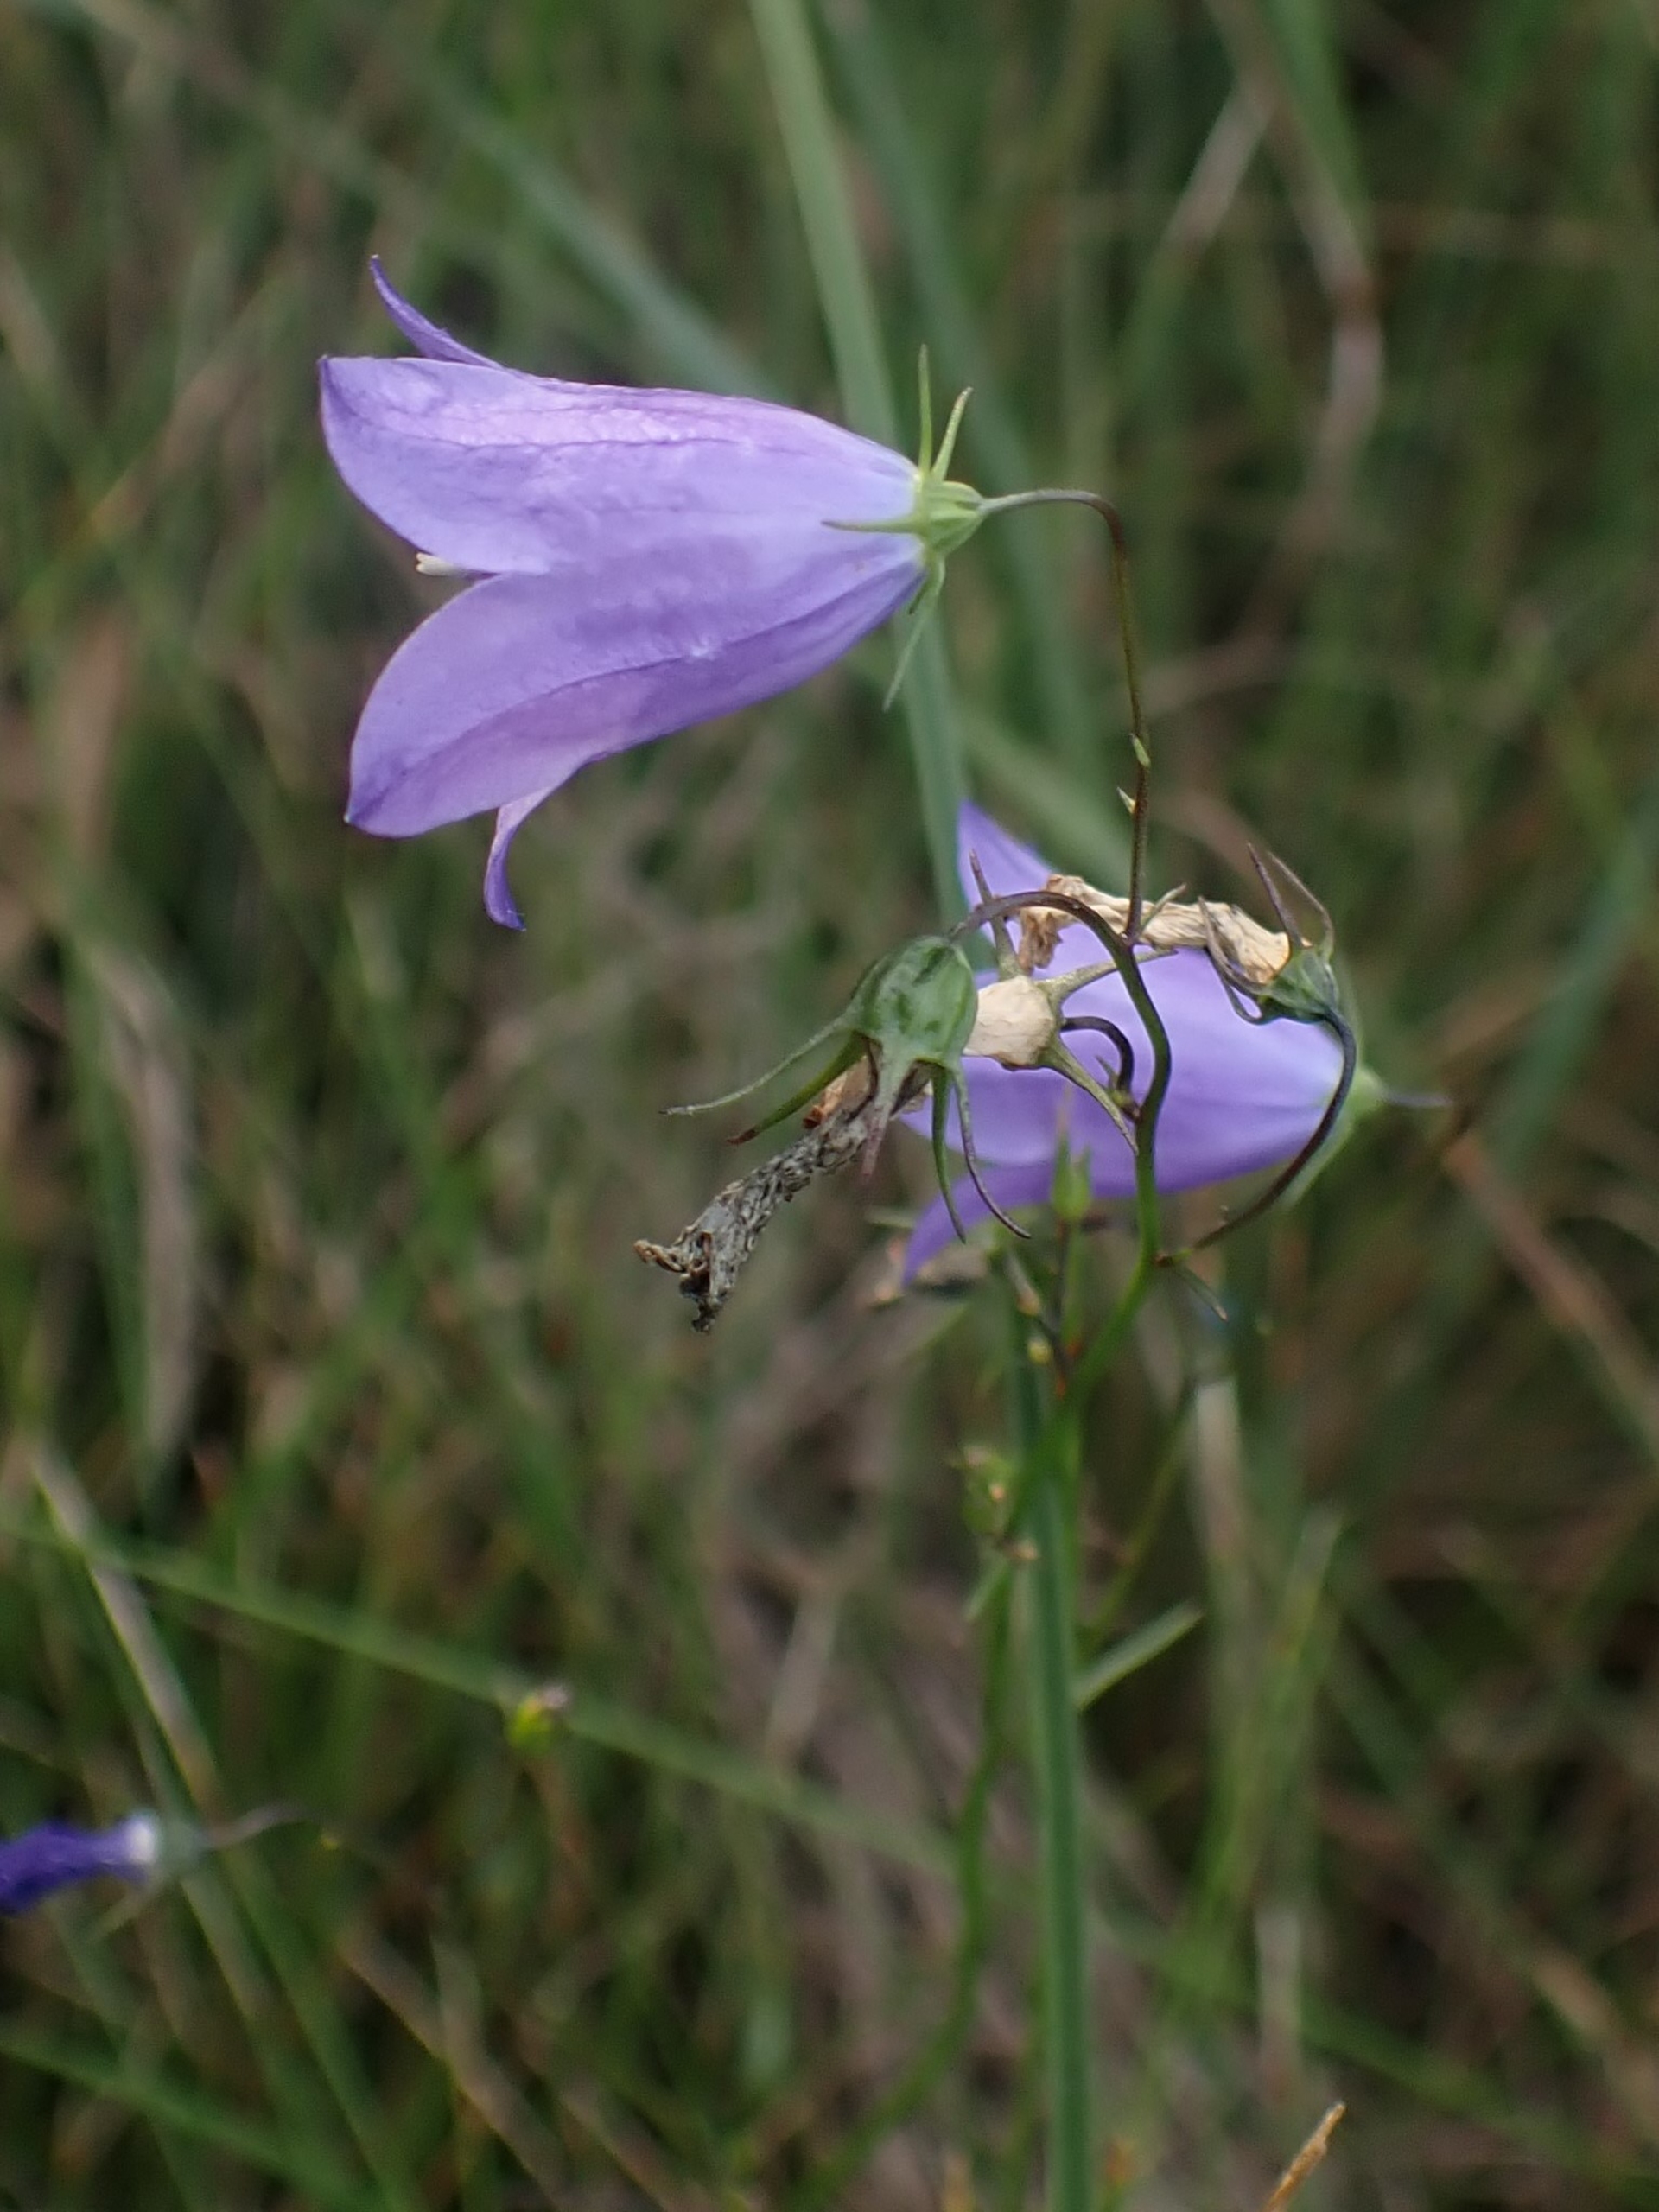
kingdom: Plantae
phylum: Tracheophyta
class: Magnoliopsida
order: Asterales
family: Campanulaceae
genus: Campanula
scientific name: Campanula rotundifolia
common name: Liden klokke
